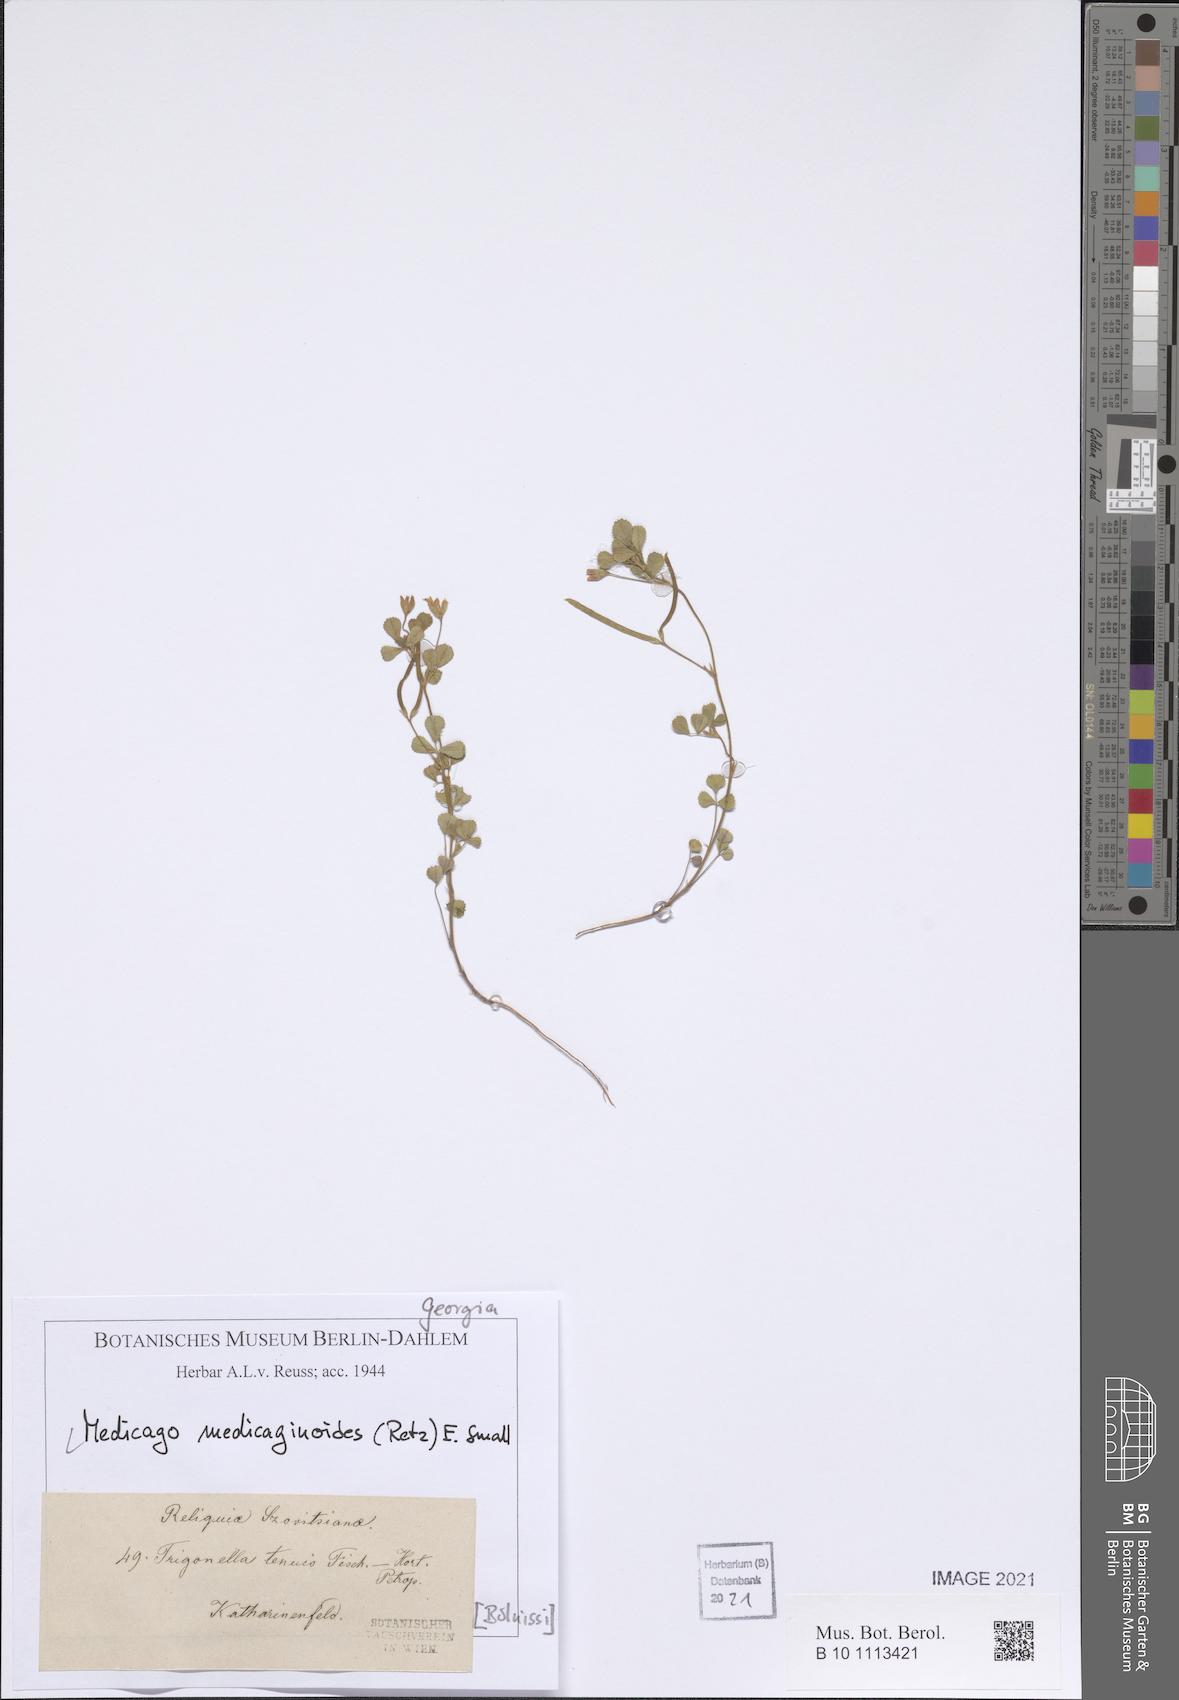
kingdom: Plantae
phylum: Tracheophyta
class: Magnoliopsida
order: Fabales
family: Fabaceae
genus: Medicago
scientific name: Medicago medicaginoides
